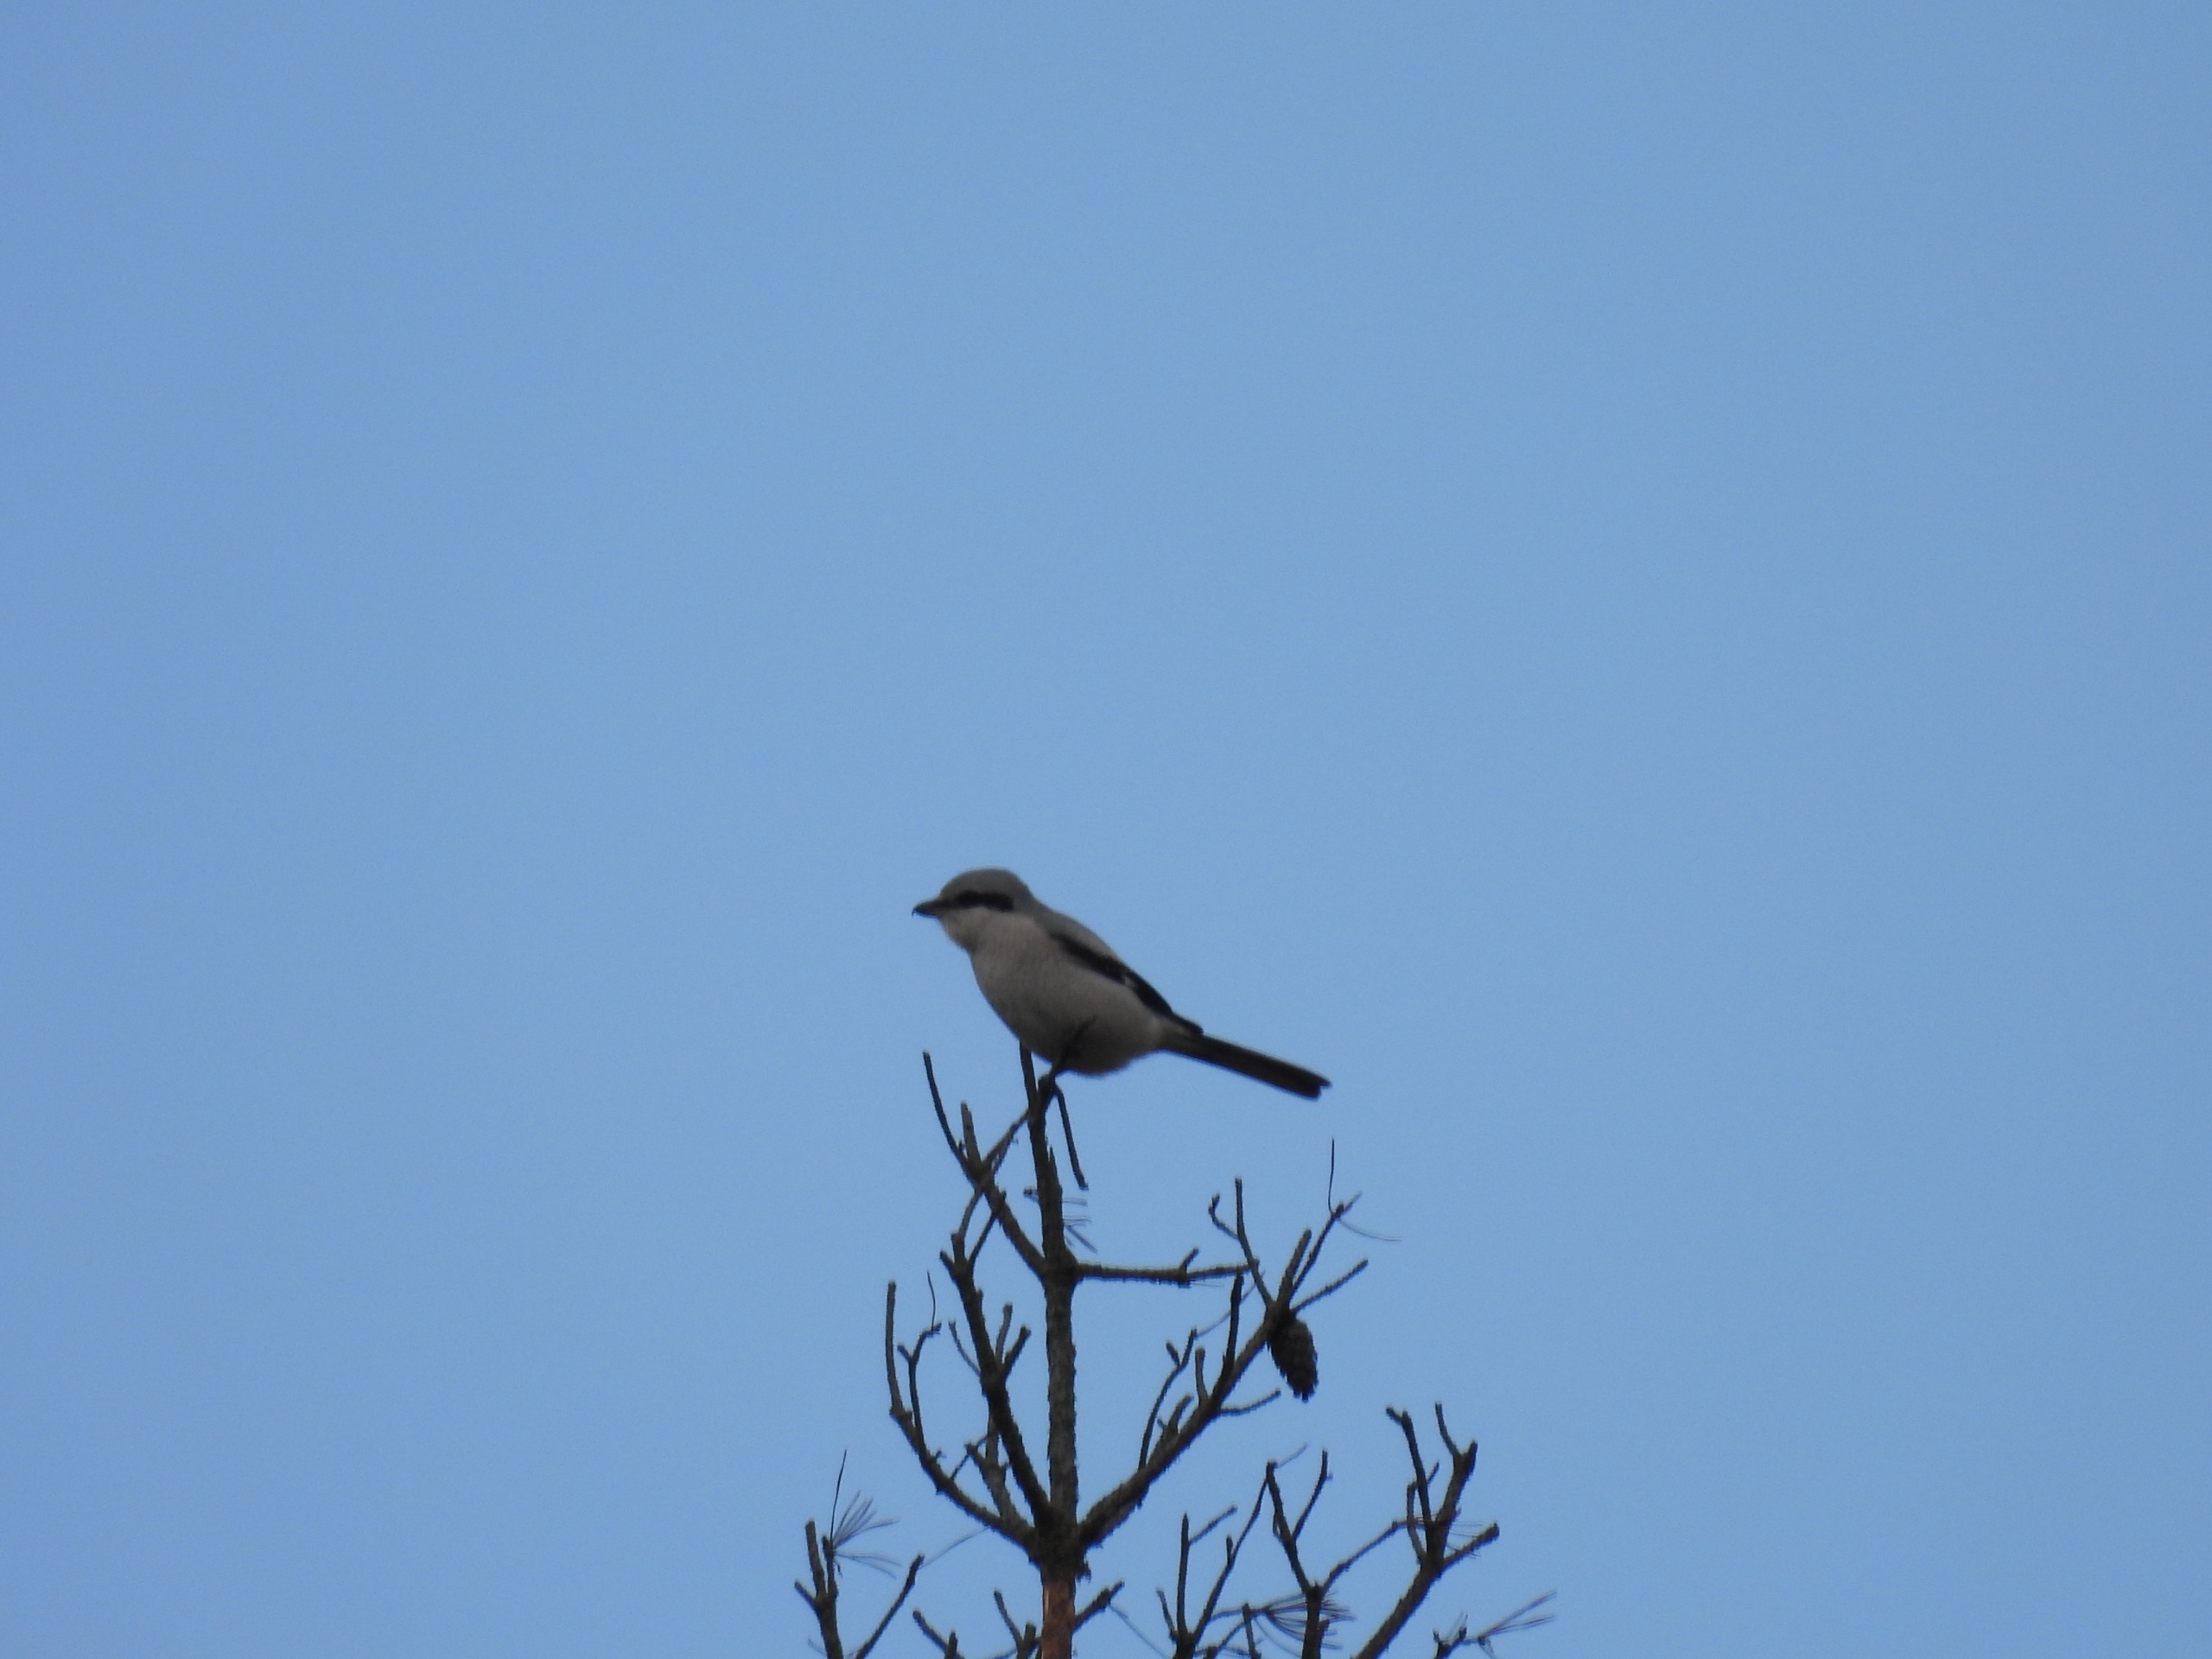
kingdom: Animalia
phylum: Chordata
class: Aves
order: Passeriformes
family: Laniidae
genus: Lanius
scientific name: Lanius excubitor
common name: Stor tornskade
